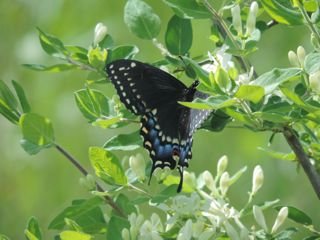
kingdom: Animalia
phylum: Arthropoda
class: Insecta
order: Lepidoptera
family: Papilionidae
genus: Papilio
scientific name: Papilio polyxenes
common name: Black Swallowtail
